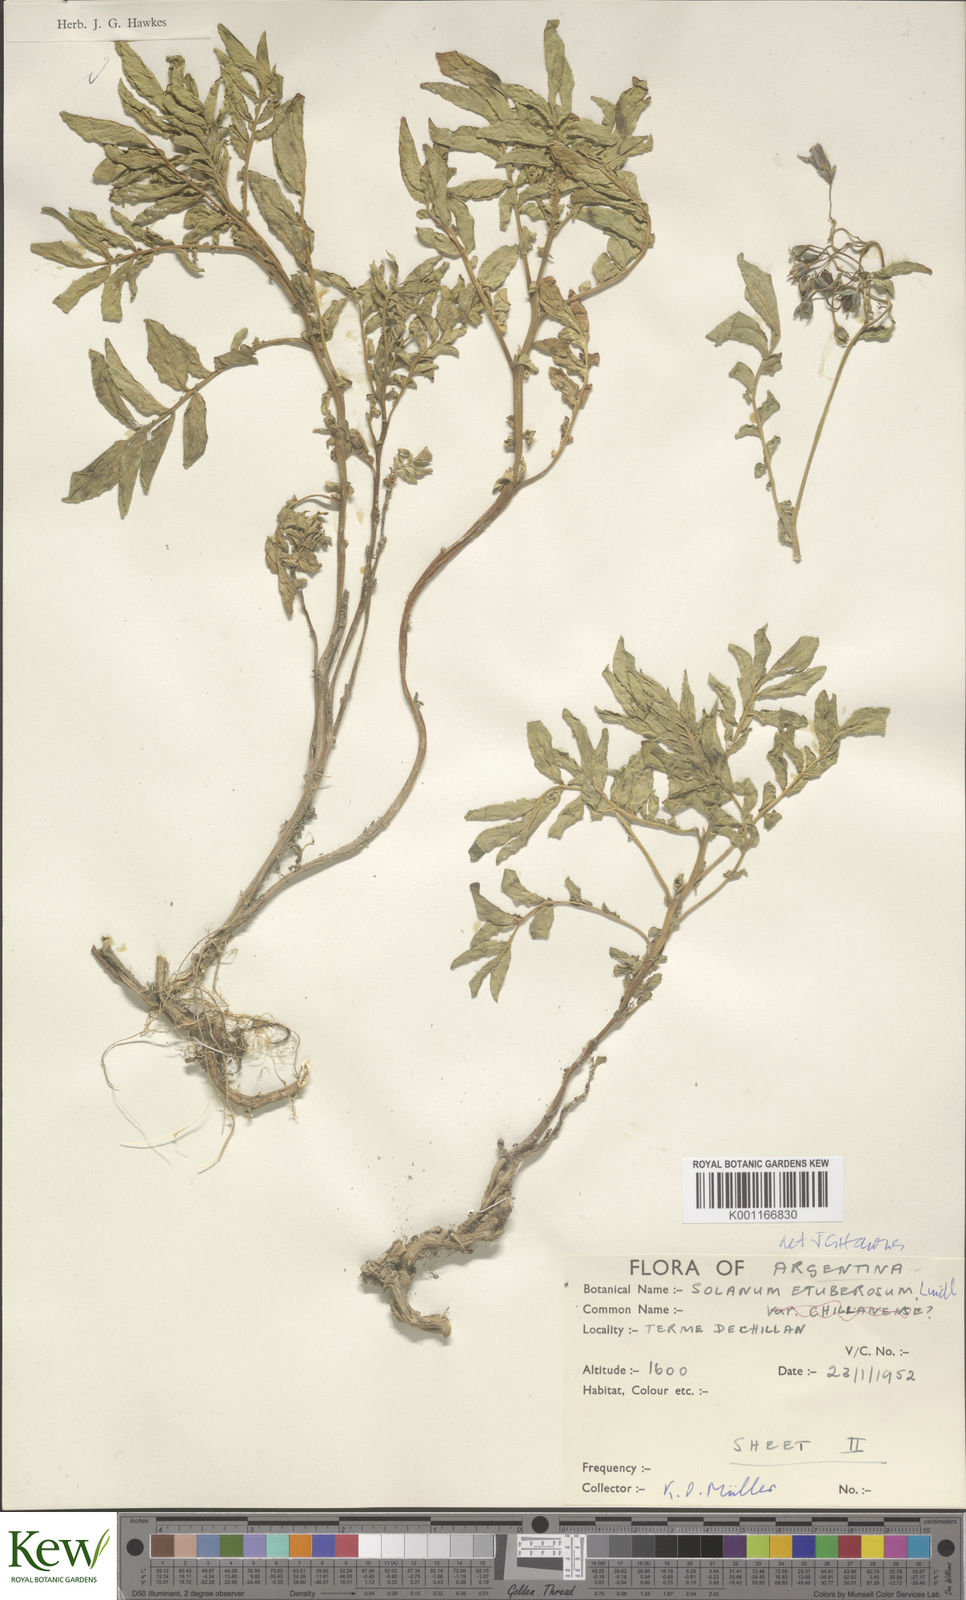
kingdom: Plantae
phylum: Tracheophyta
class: Magnoliopsida
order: Solanales
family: Solanaceae
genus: Solanum
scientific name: Solanum etuberosum
